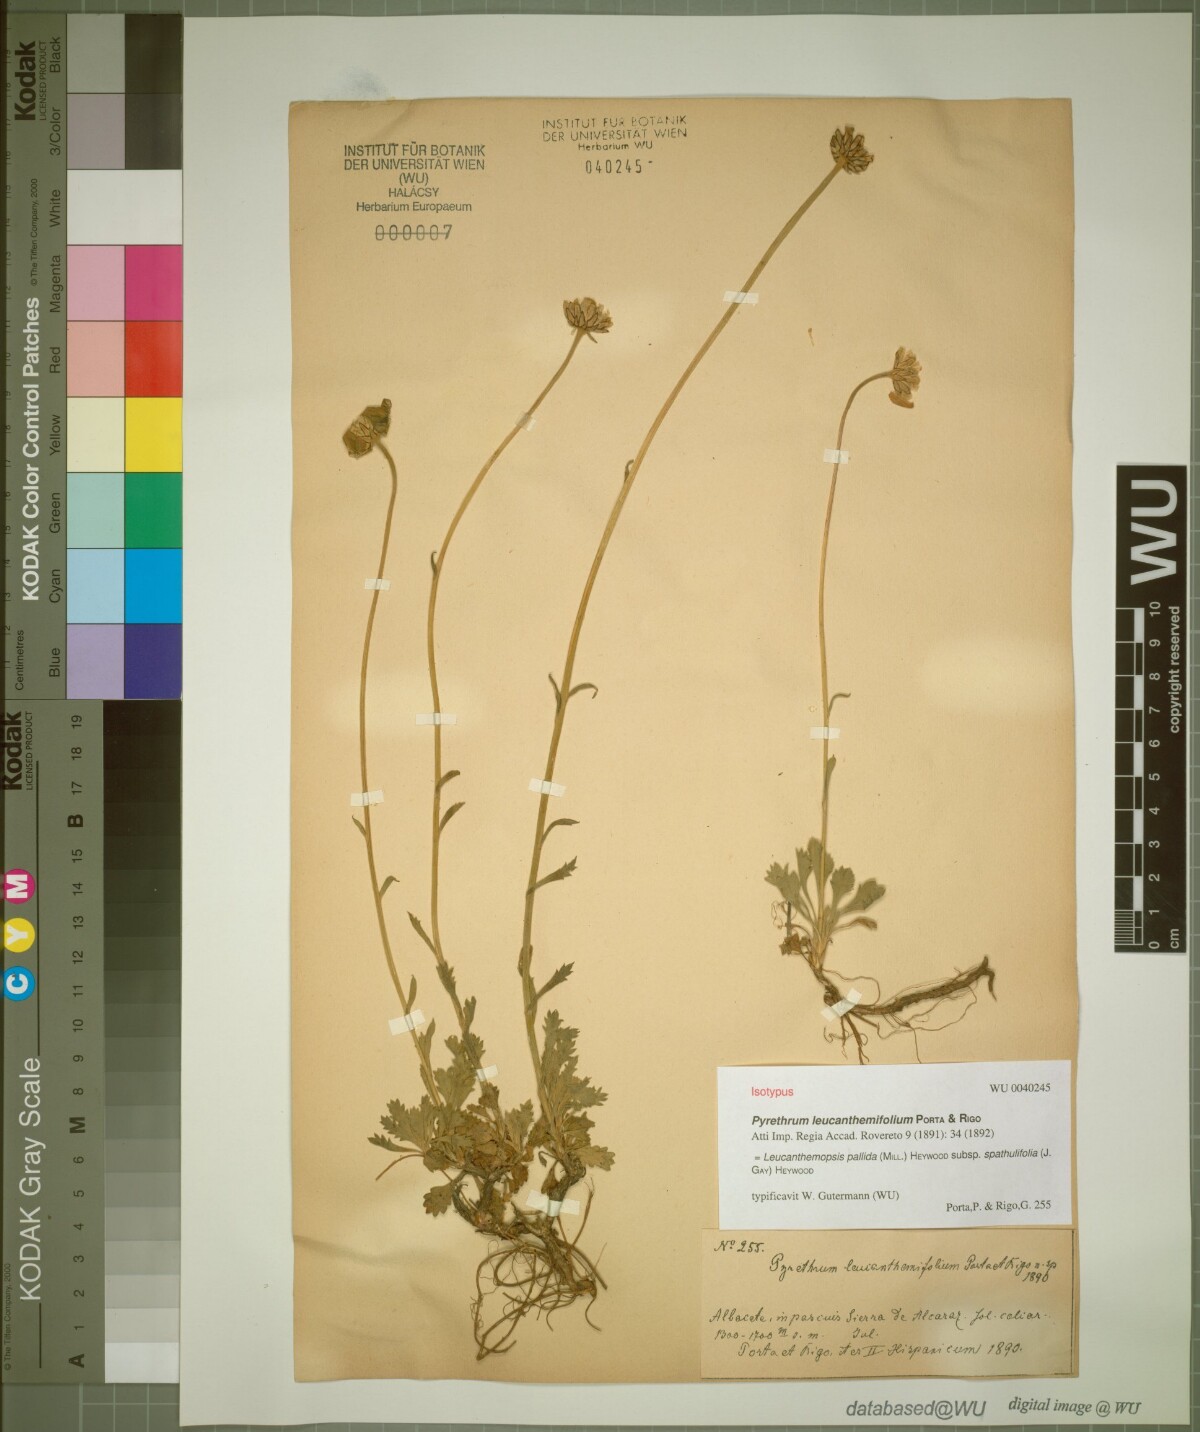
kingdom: Plantae
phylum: Tracheophyta
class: Magnoliopsida
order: Asterales
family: Asteraceae
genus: Leucanthemopsis
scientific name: Leucanthemopsis
